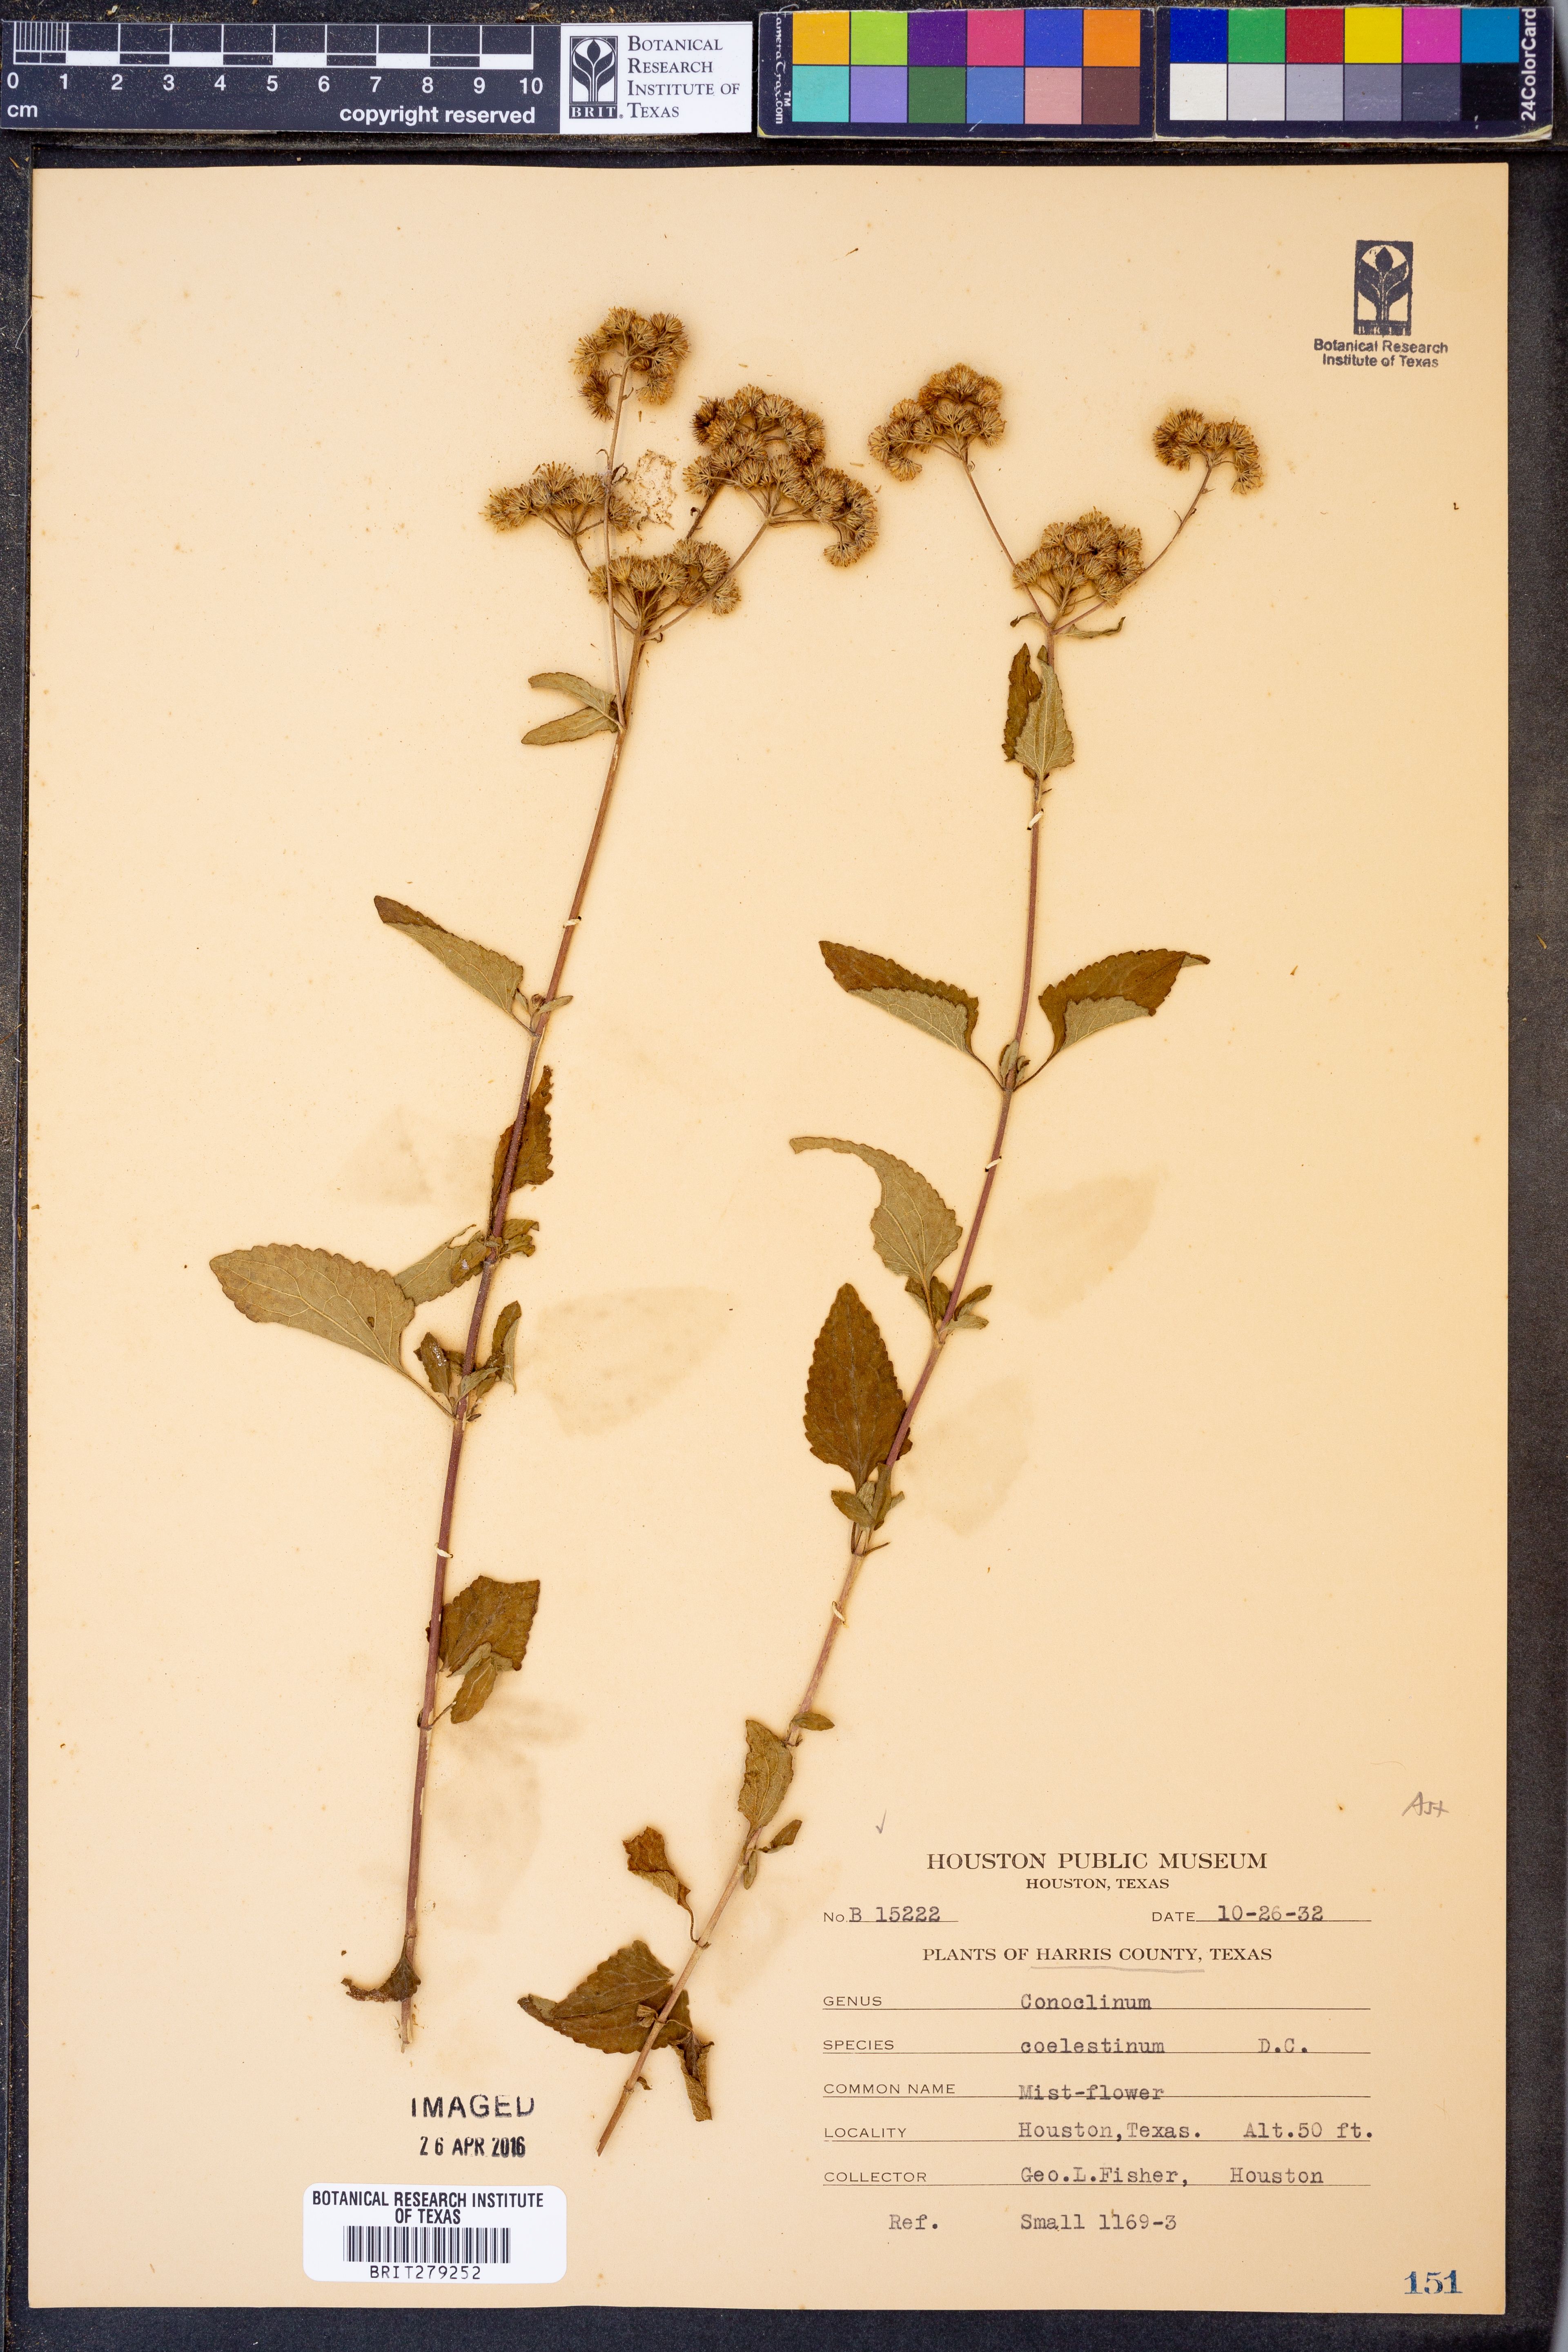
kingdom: Plantae
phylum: Tracheophyta
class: Magnoliopsida
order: Asterales
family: Asteraceae
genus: Conoclinium
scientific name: Conoclinium coelestinum
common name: Blue mistflower
